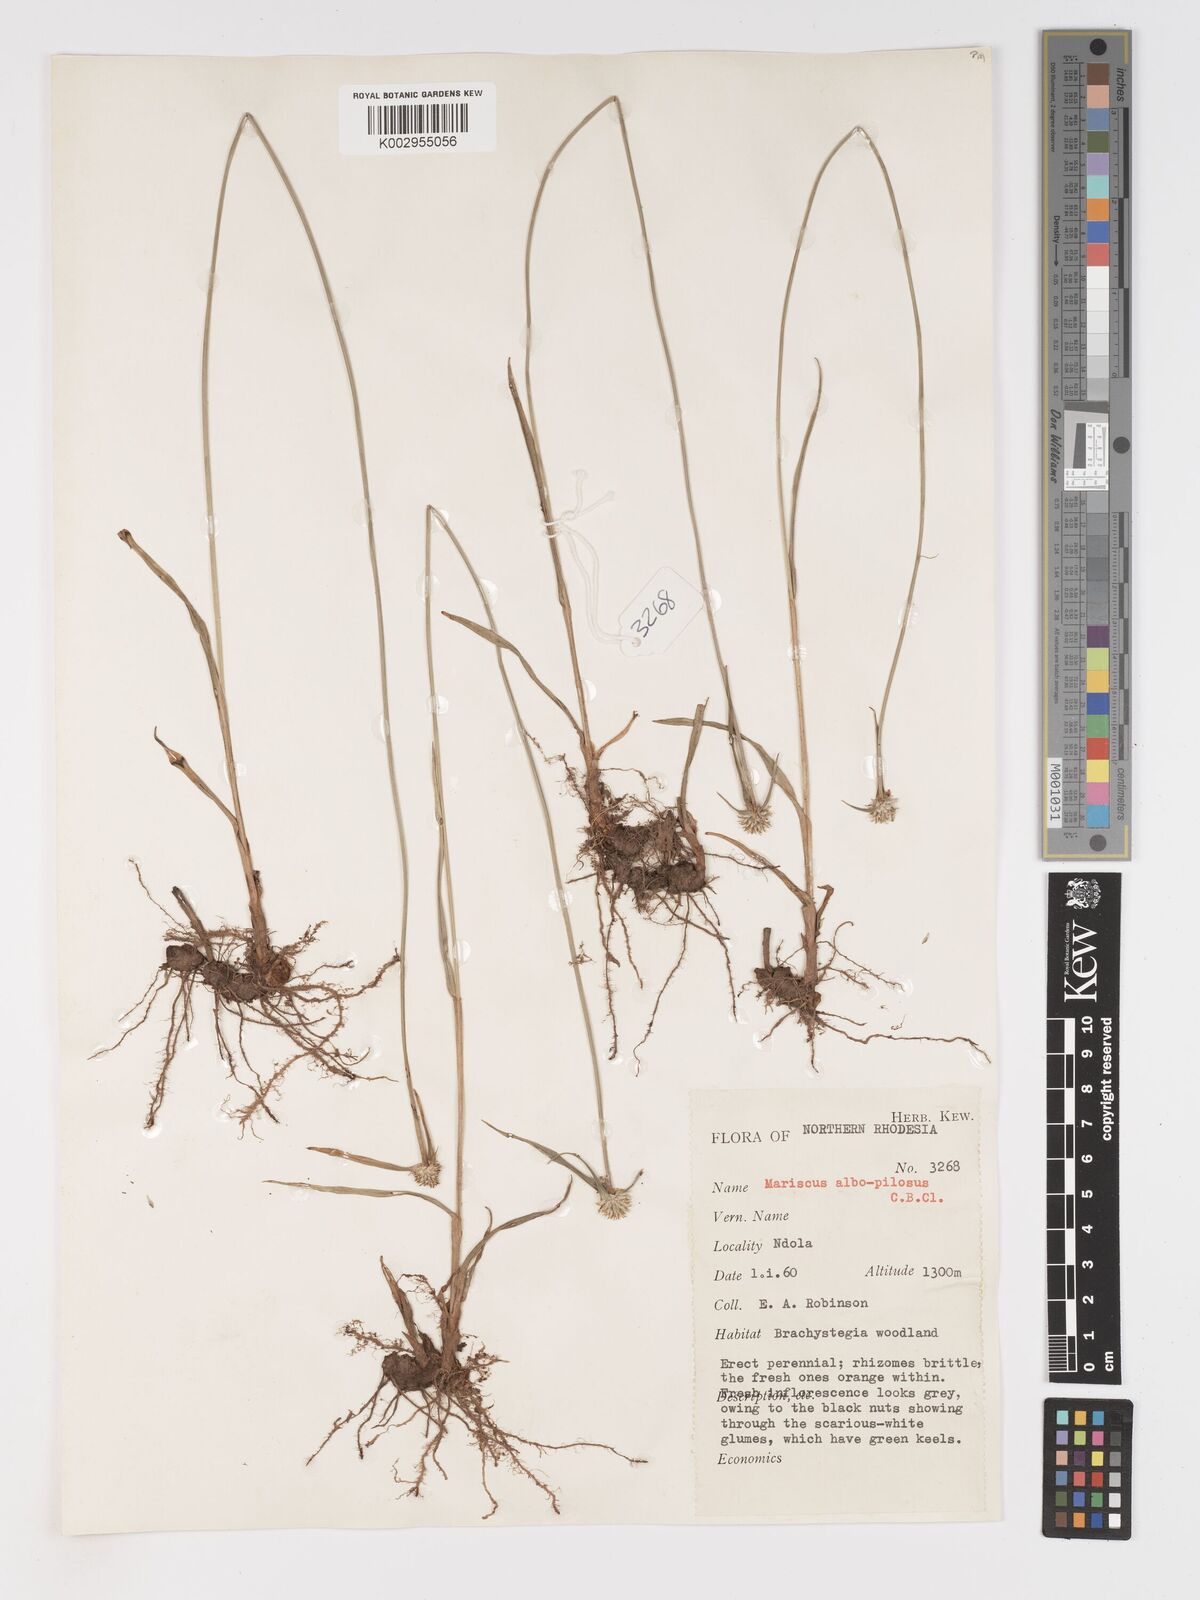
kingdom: Plantae
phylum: Tracheophyta
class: Liliopsida
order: Poales
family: Cyperaceae
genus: Cyperus
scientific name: Cyperus albopilosus
